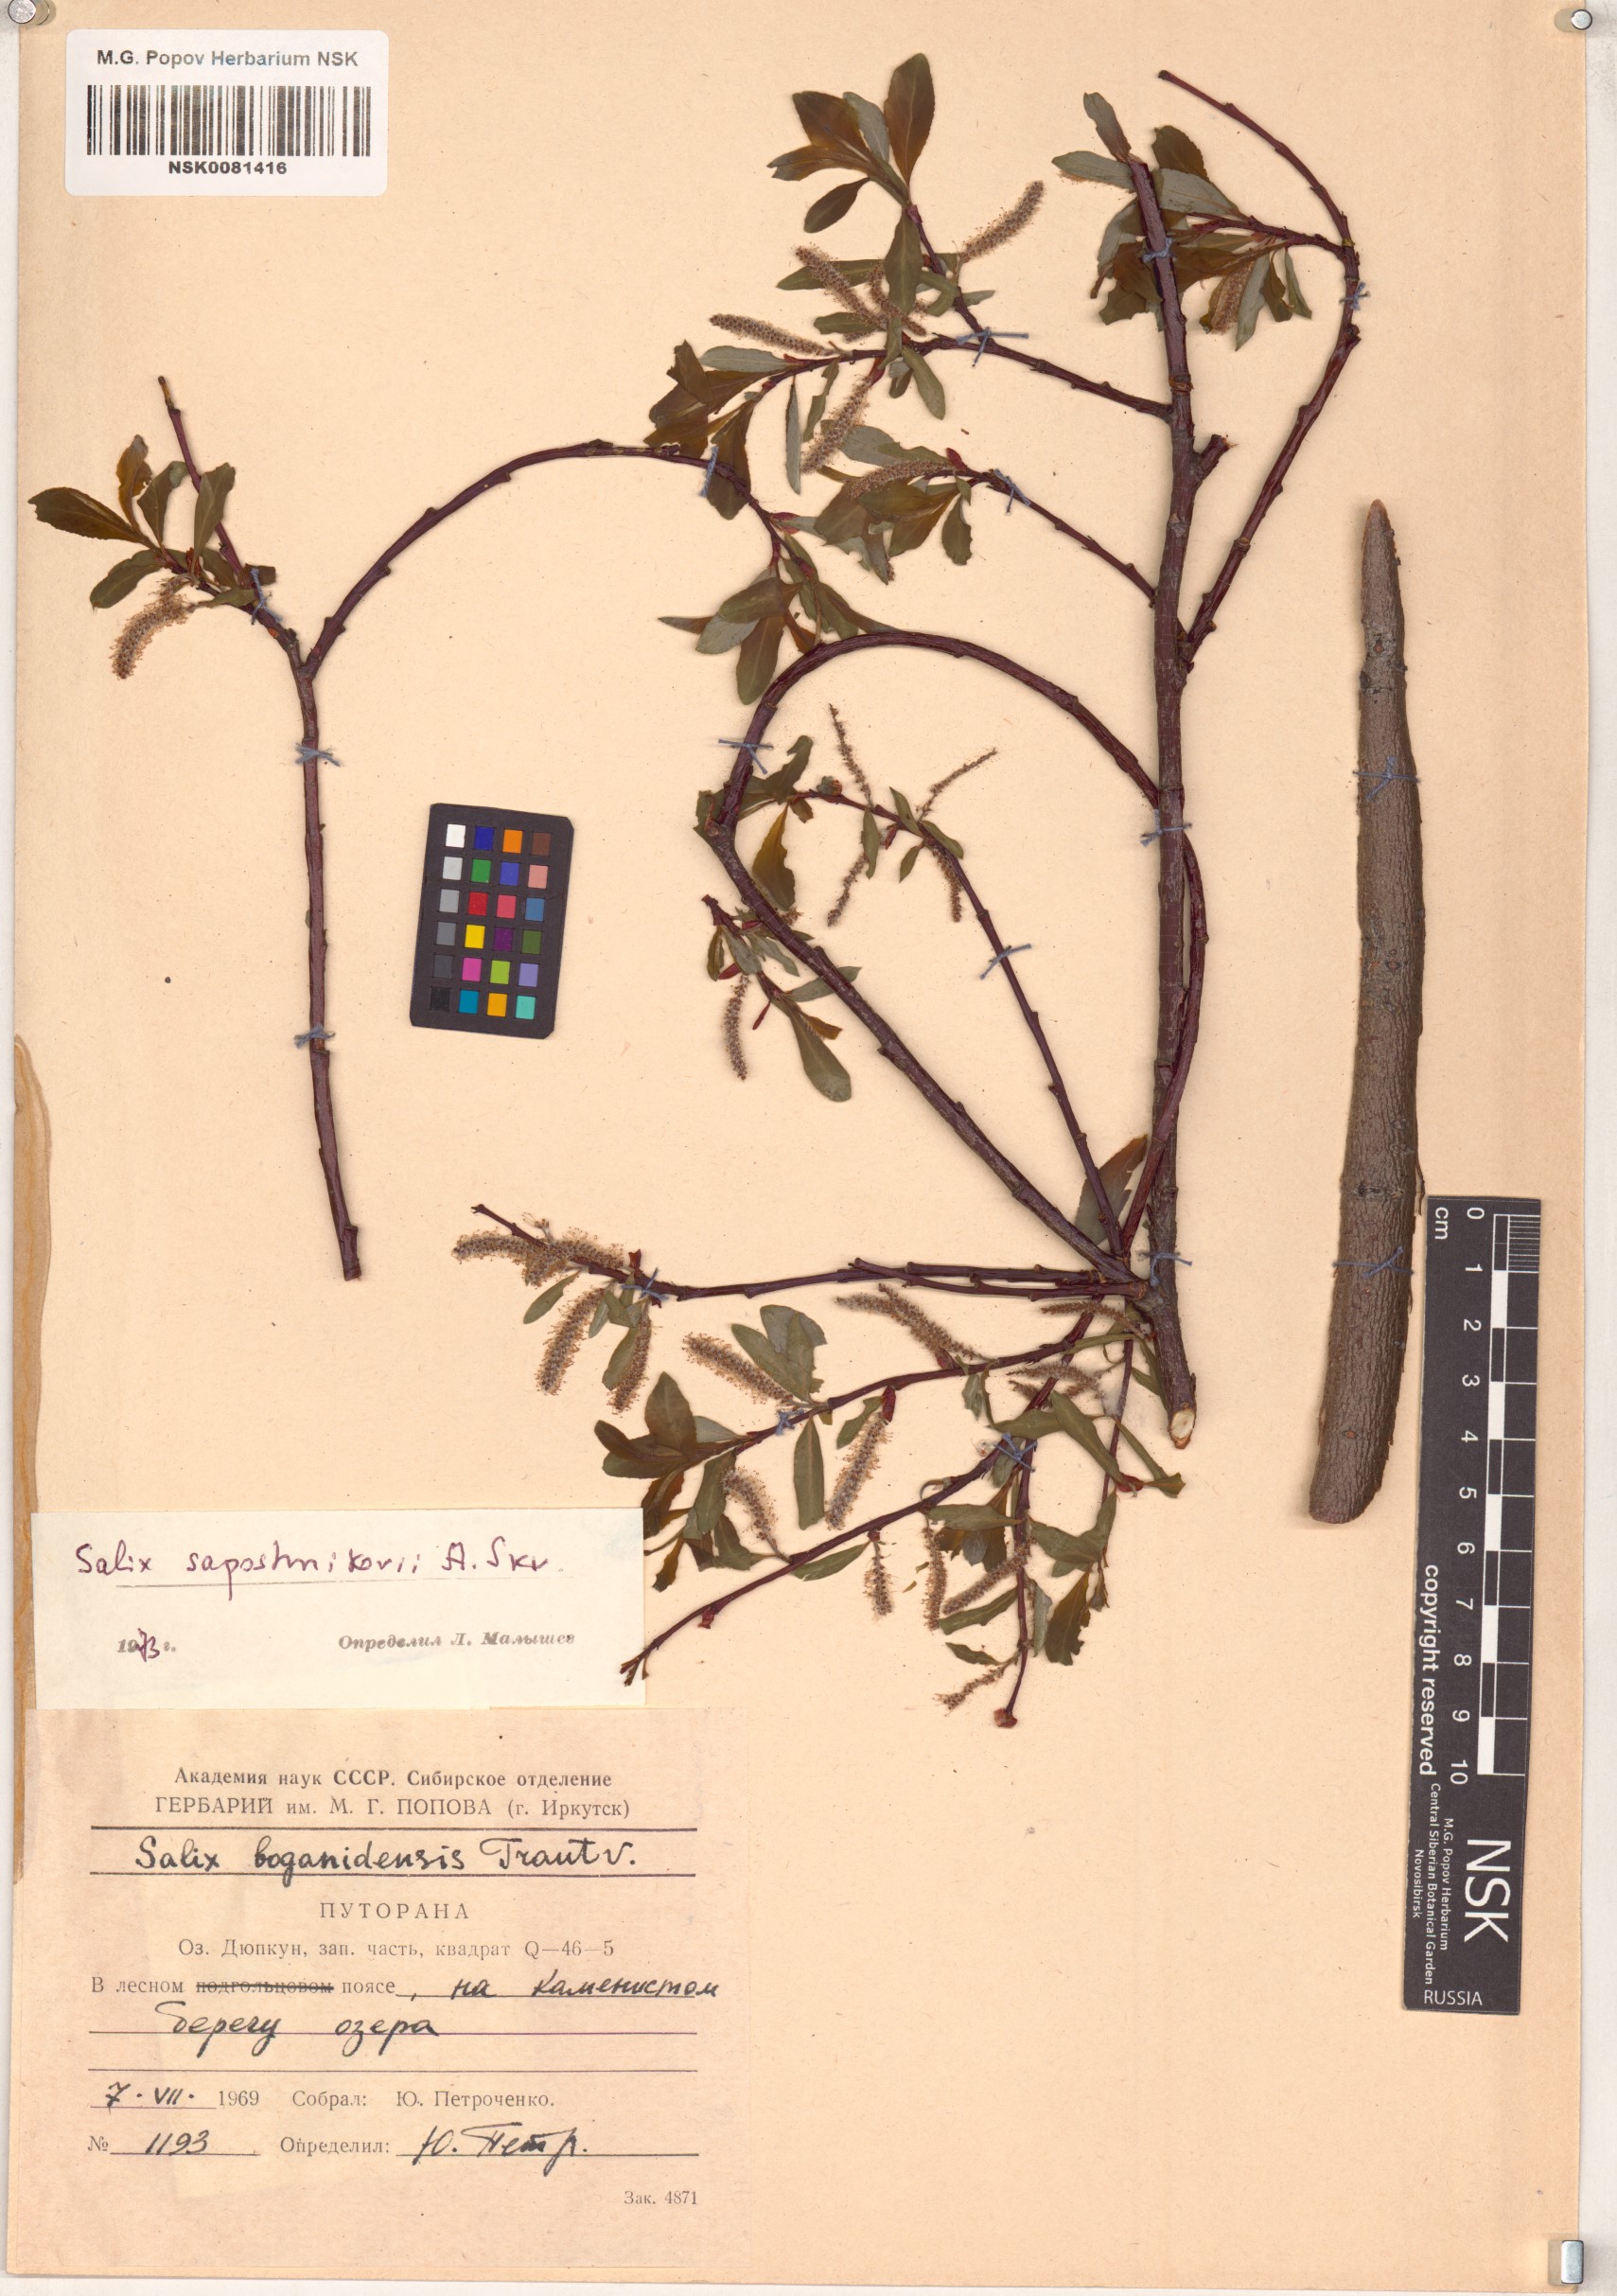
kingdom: Plantae
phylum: Tracheophyta
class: Magnoliopsida
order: Malpighiales
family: Salicaceae
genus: Salix
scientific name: Salix saposhnikovii
